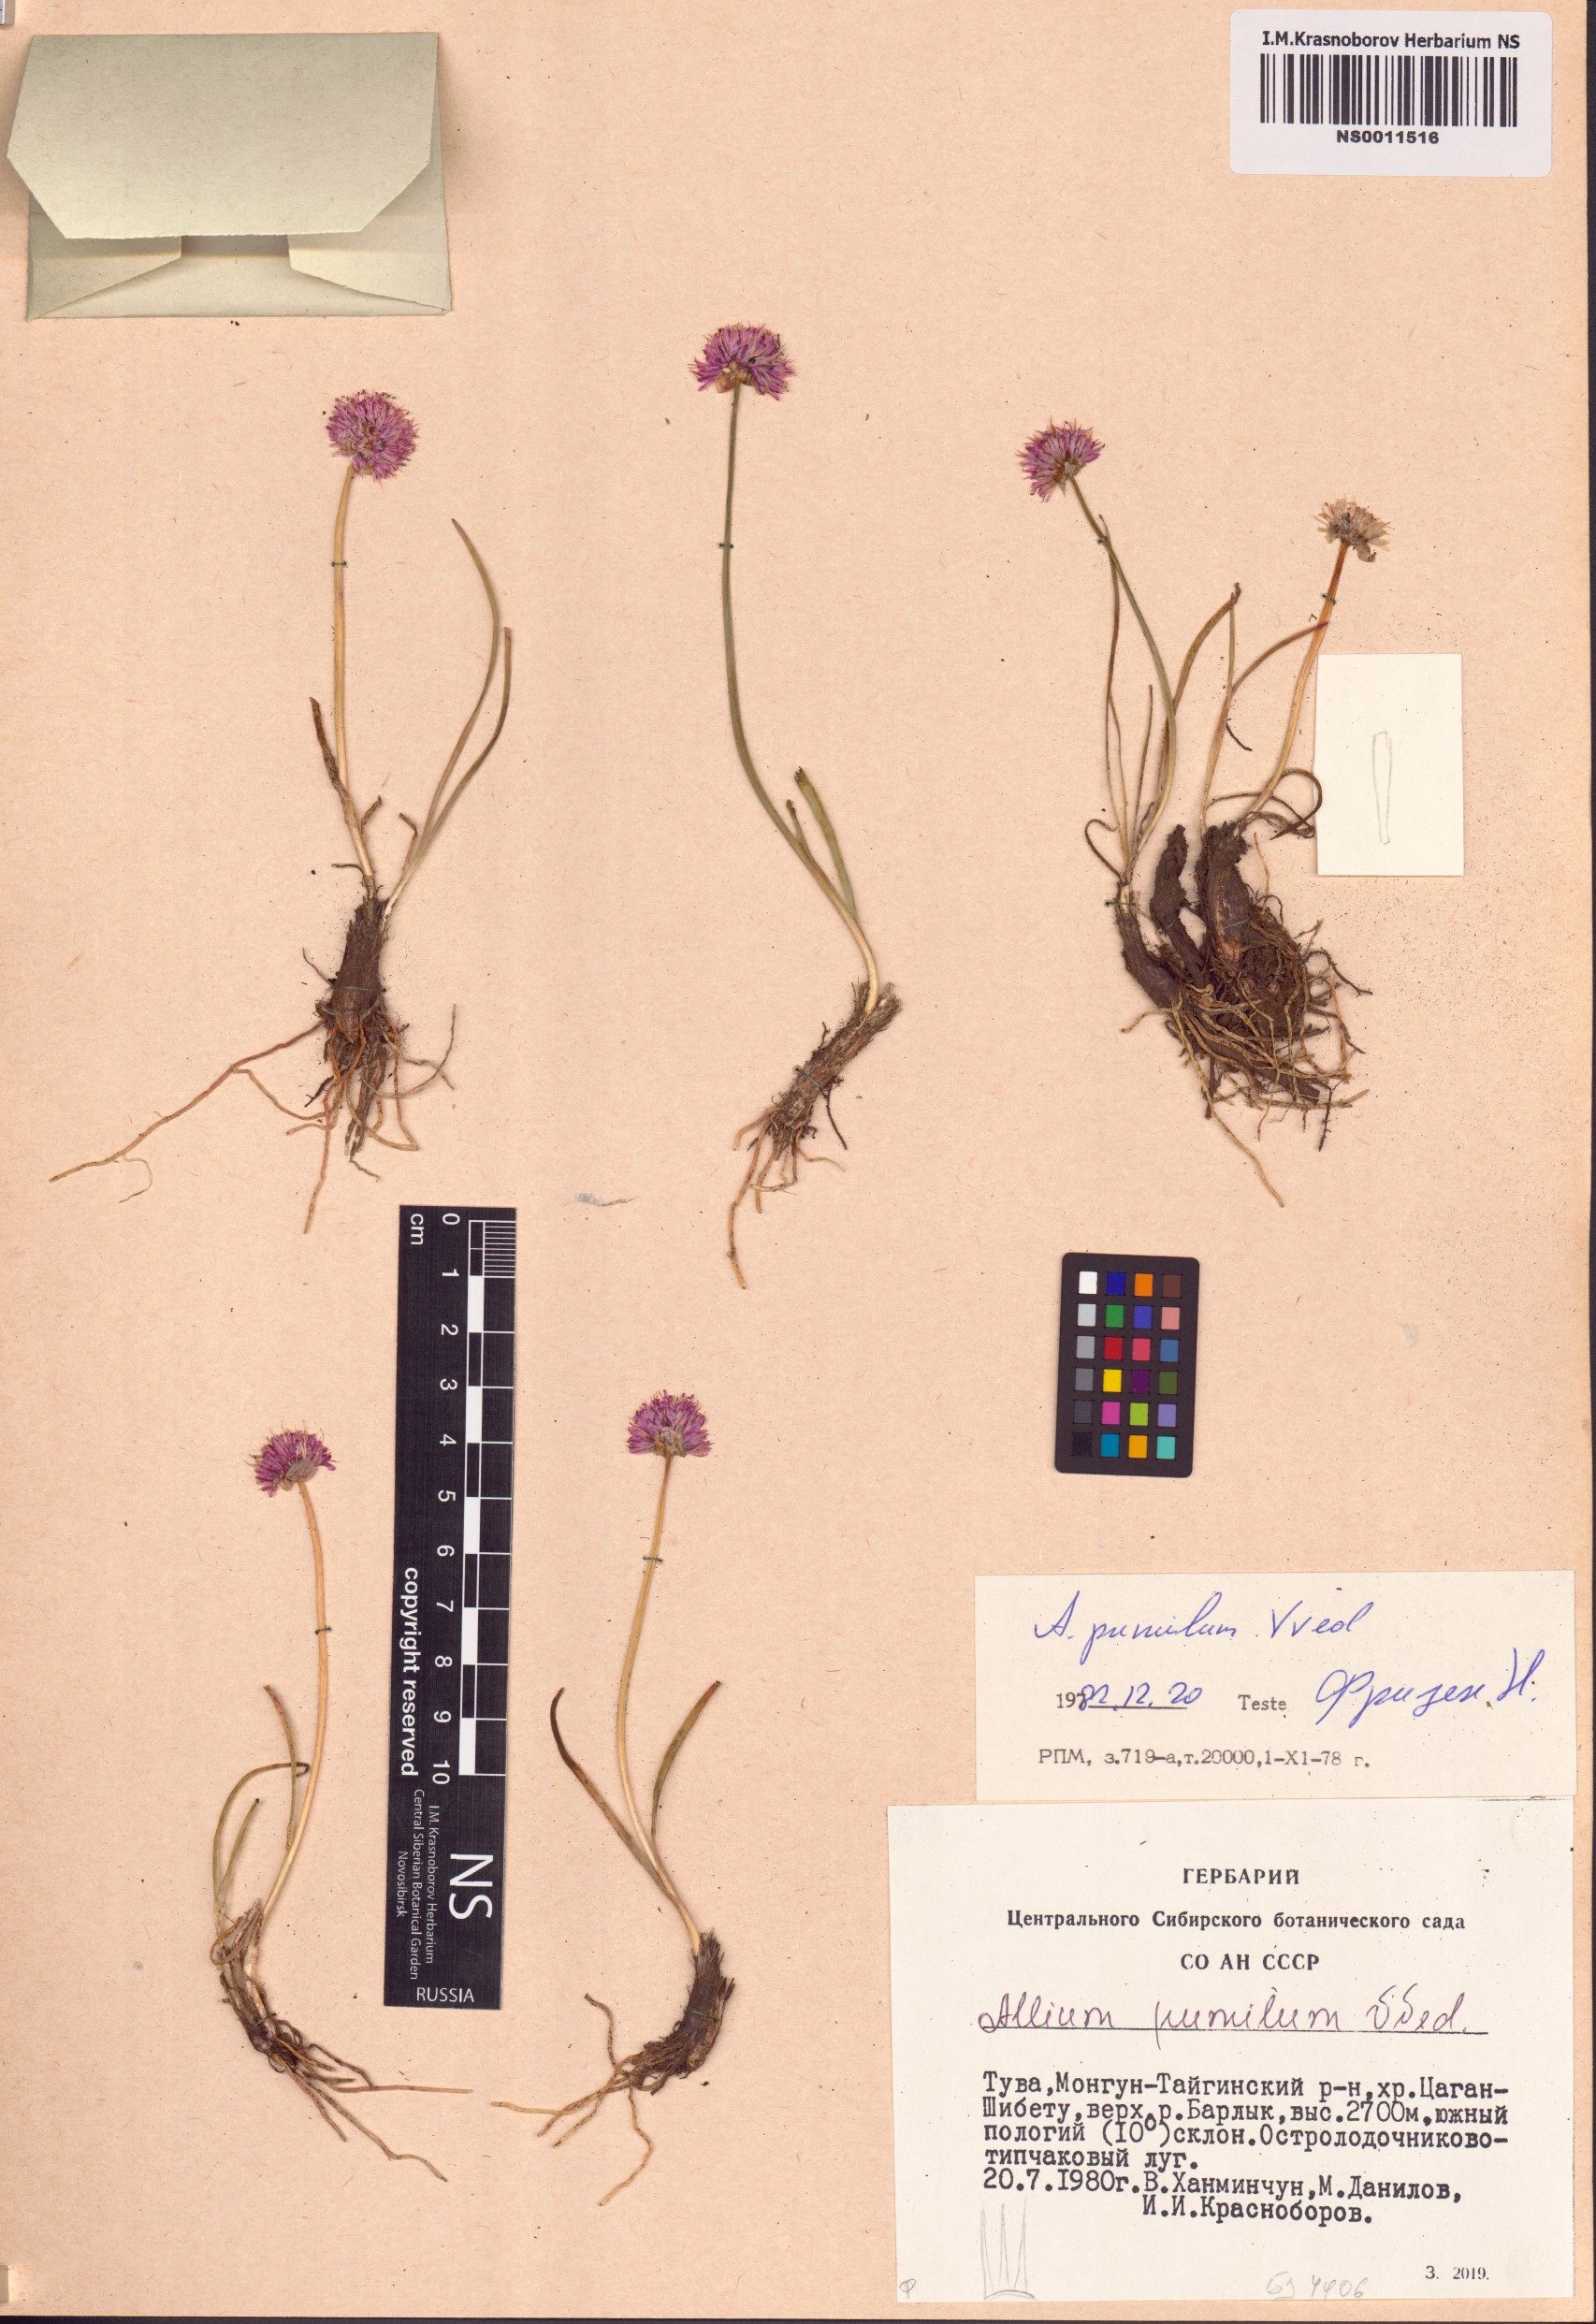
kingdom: Plantae
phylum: Tracheophyta
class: Liliopsida
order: Asparagales
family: Amaryllidaceae
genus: Allium
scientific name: Allium pumilum
